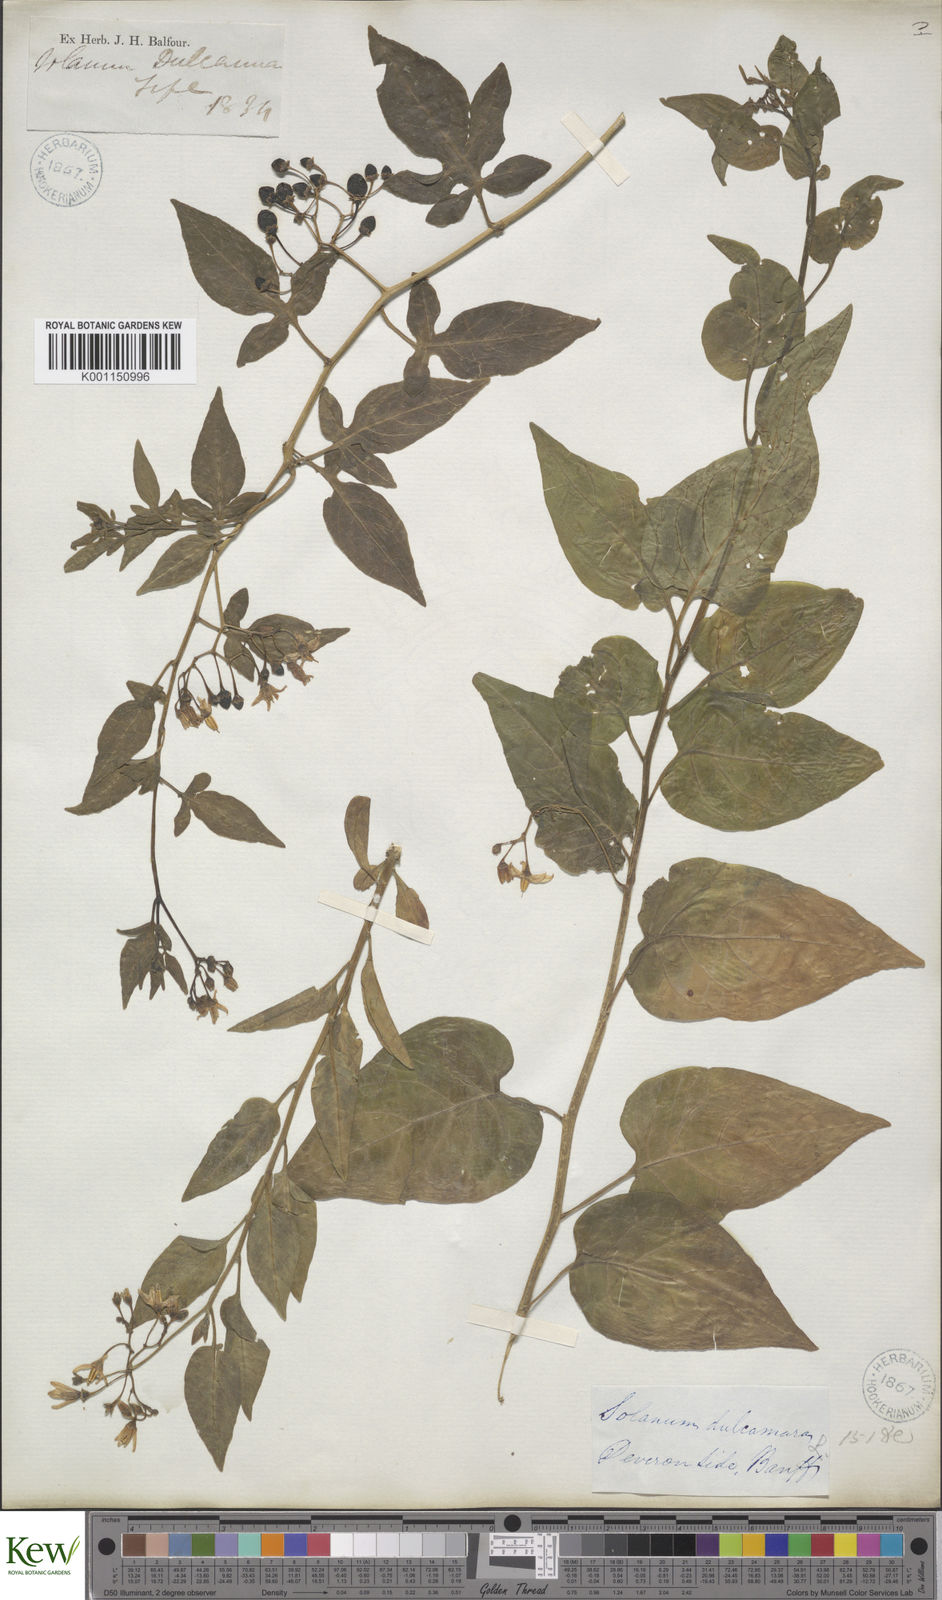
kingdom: Plantae
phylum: Tracheophyta
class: Magnoliopsida
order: Solanales
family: Solanaceae
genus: Solanum
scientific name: Solanum dulcamara
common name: Climbing nightshade
